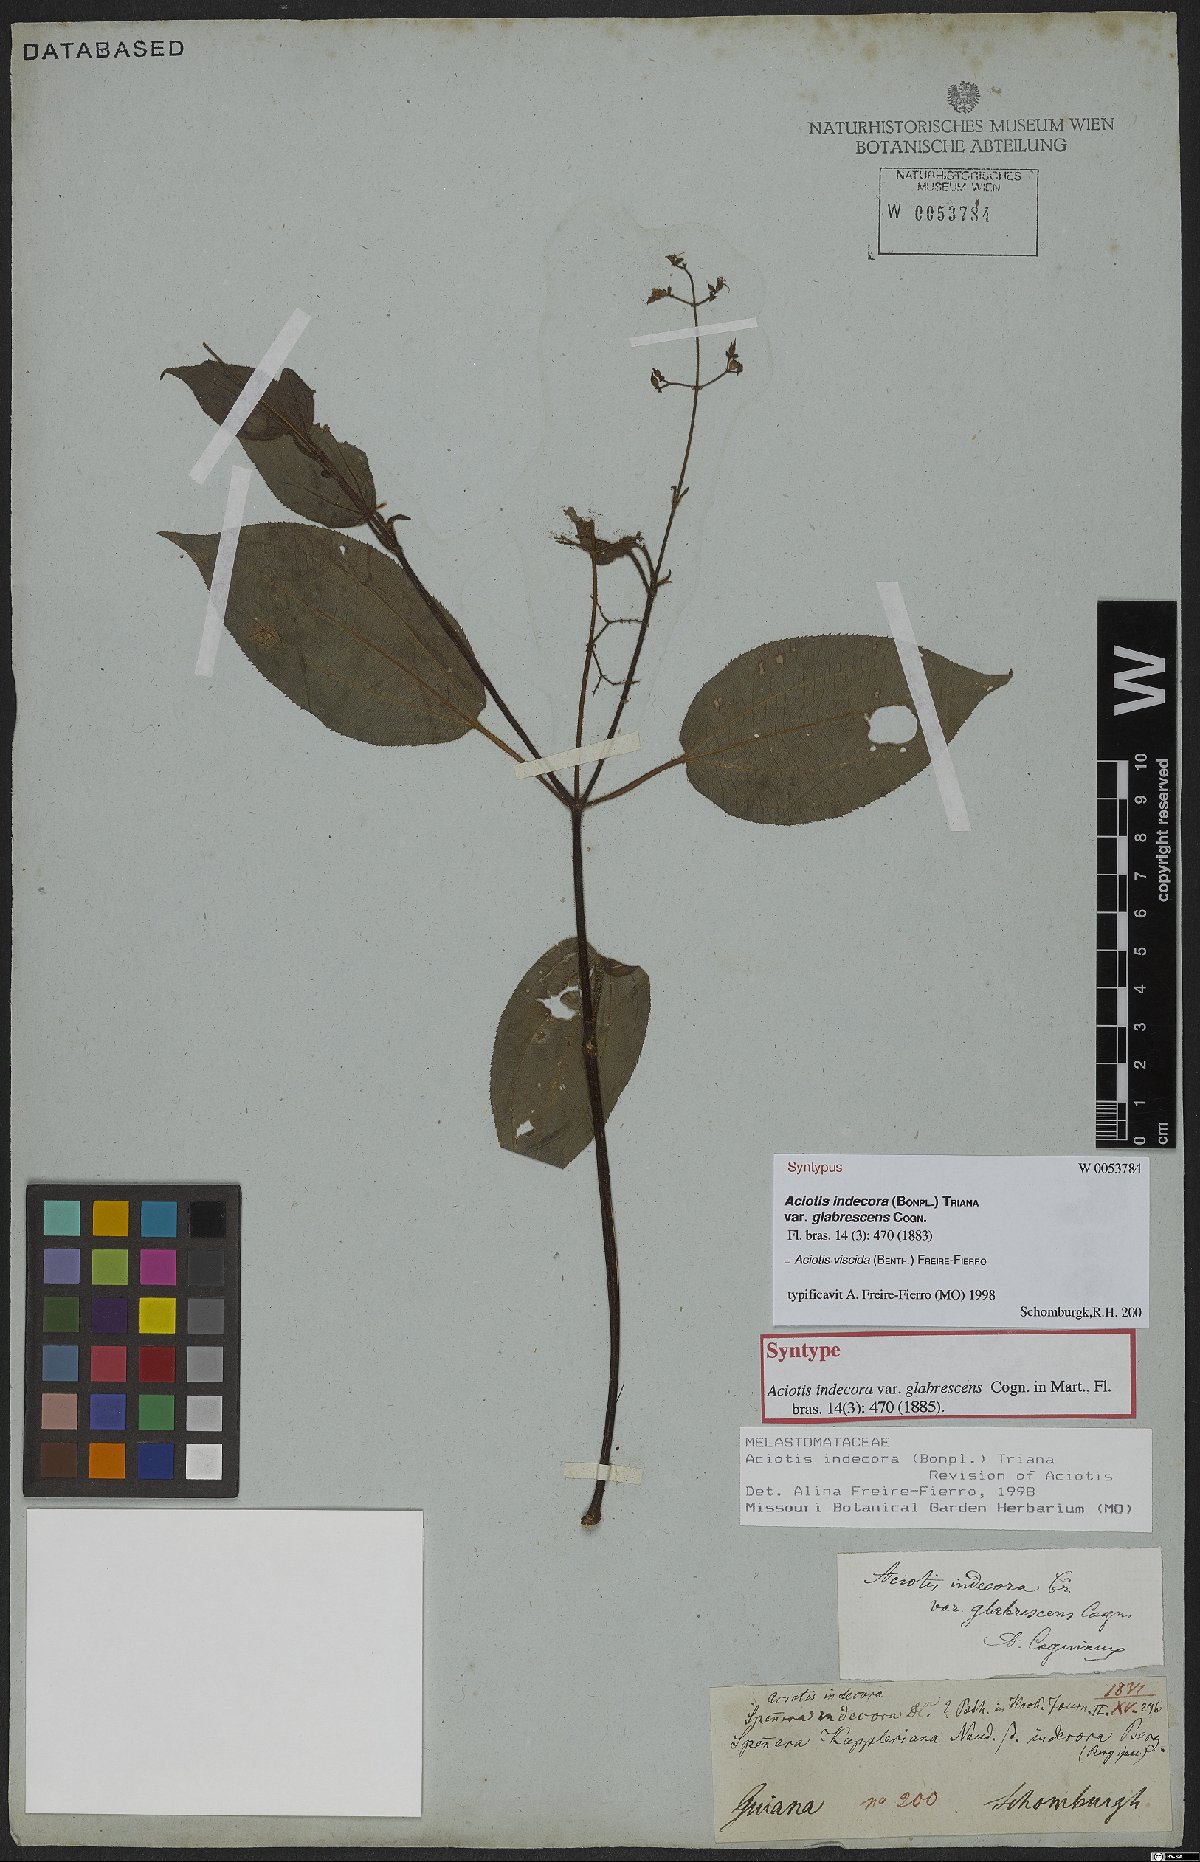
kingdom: Plantae
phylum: Tracheophyta
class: Magnoliopsida
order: Myrtales
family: Melastomataceae
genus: Aciotis
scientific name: Aciotis viscida
